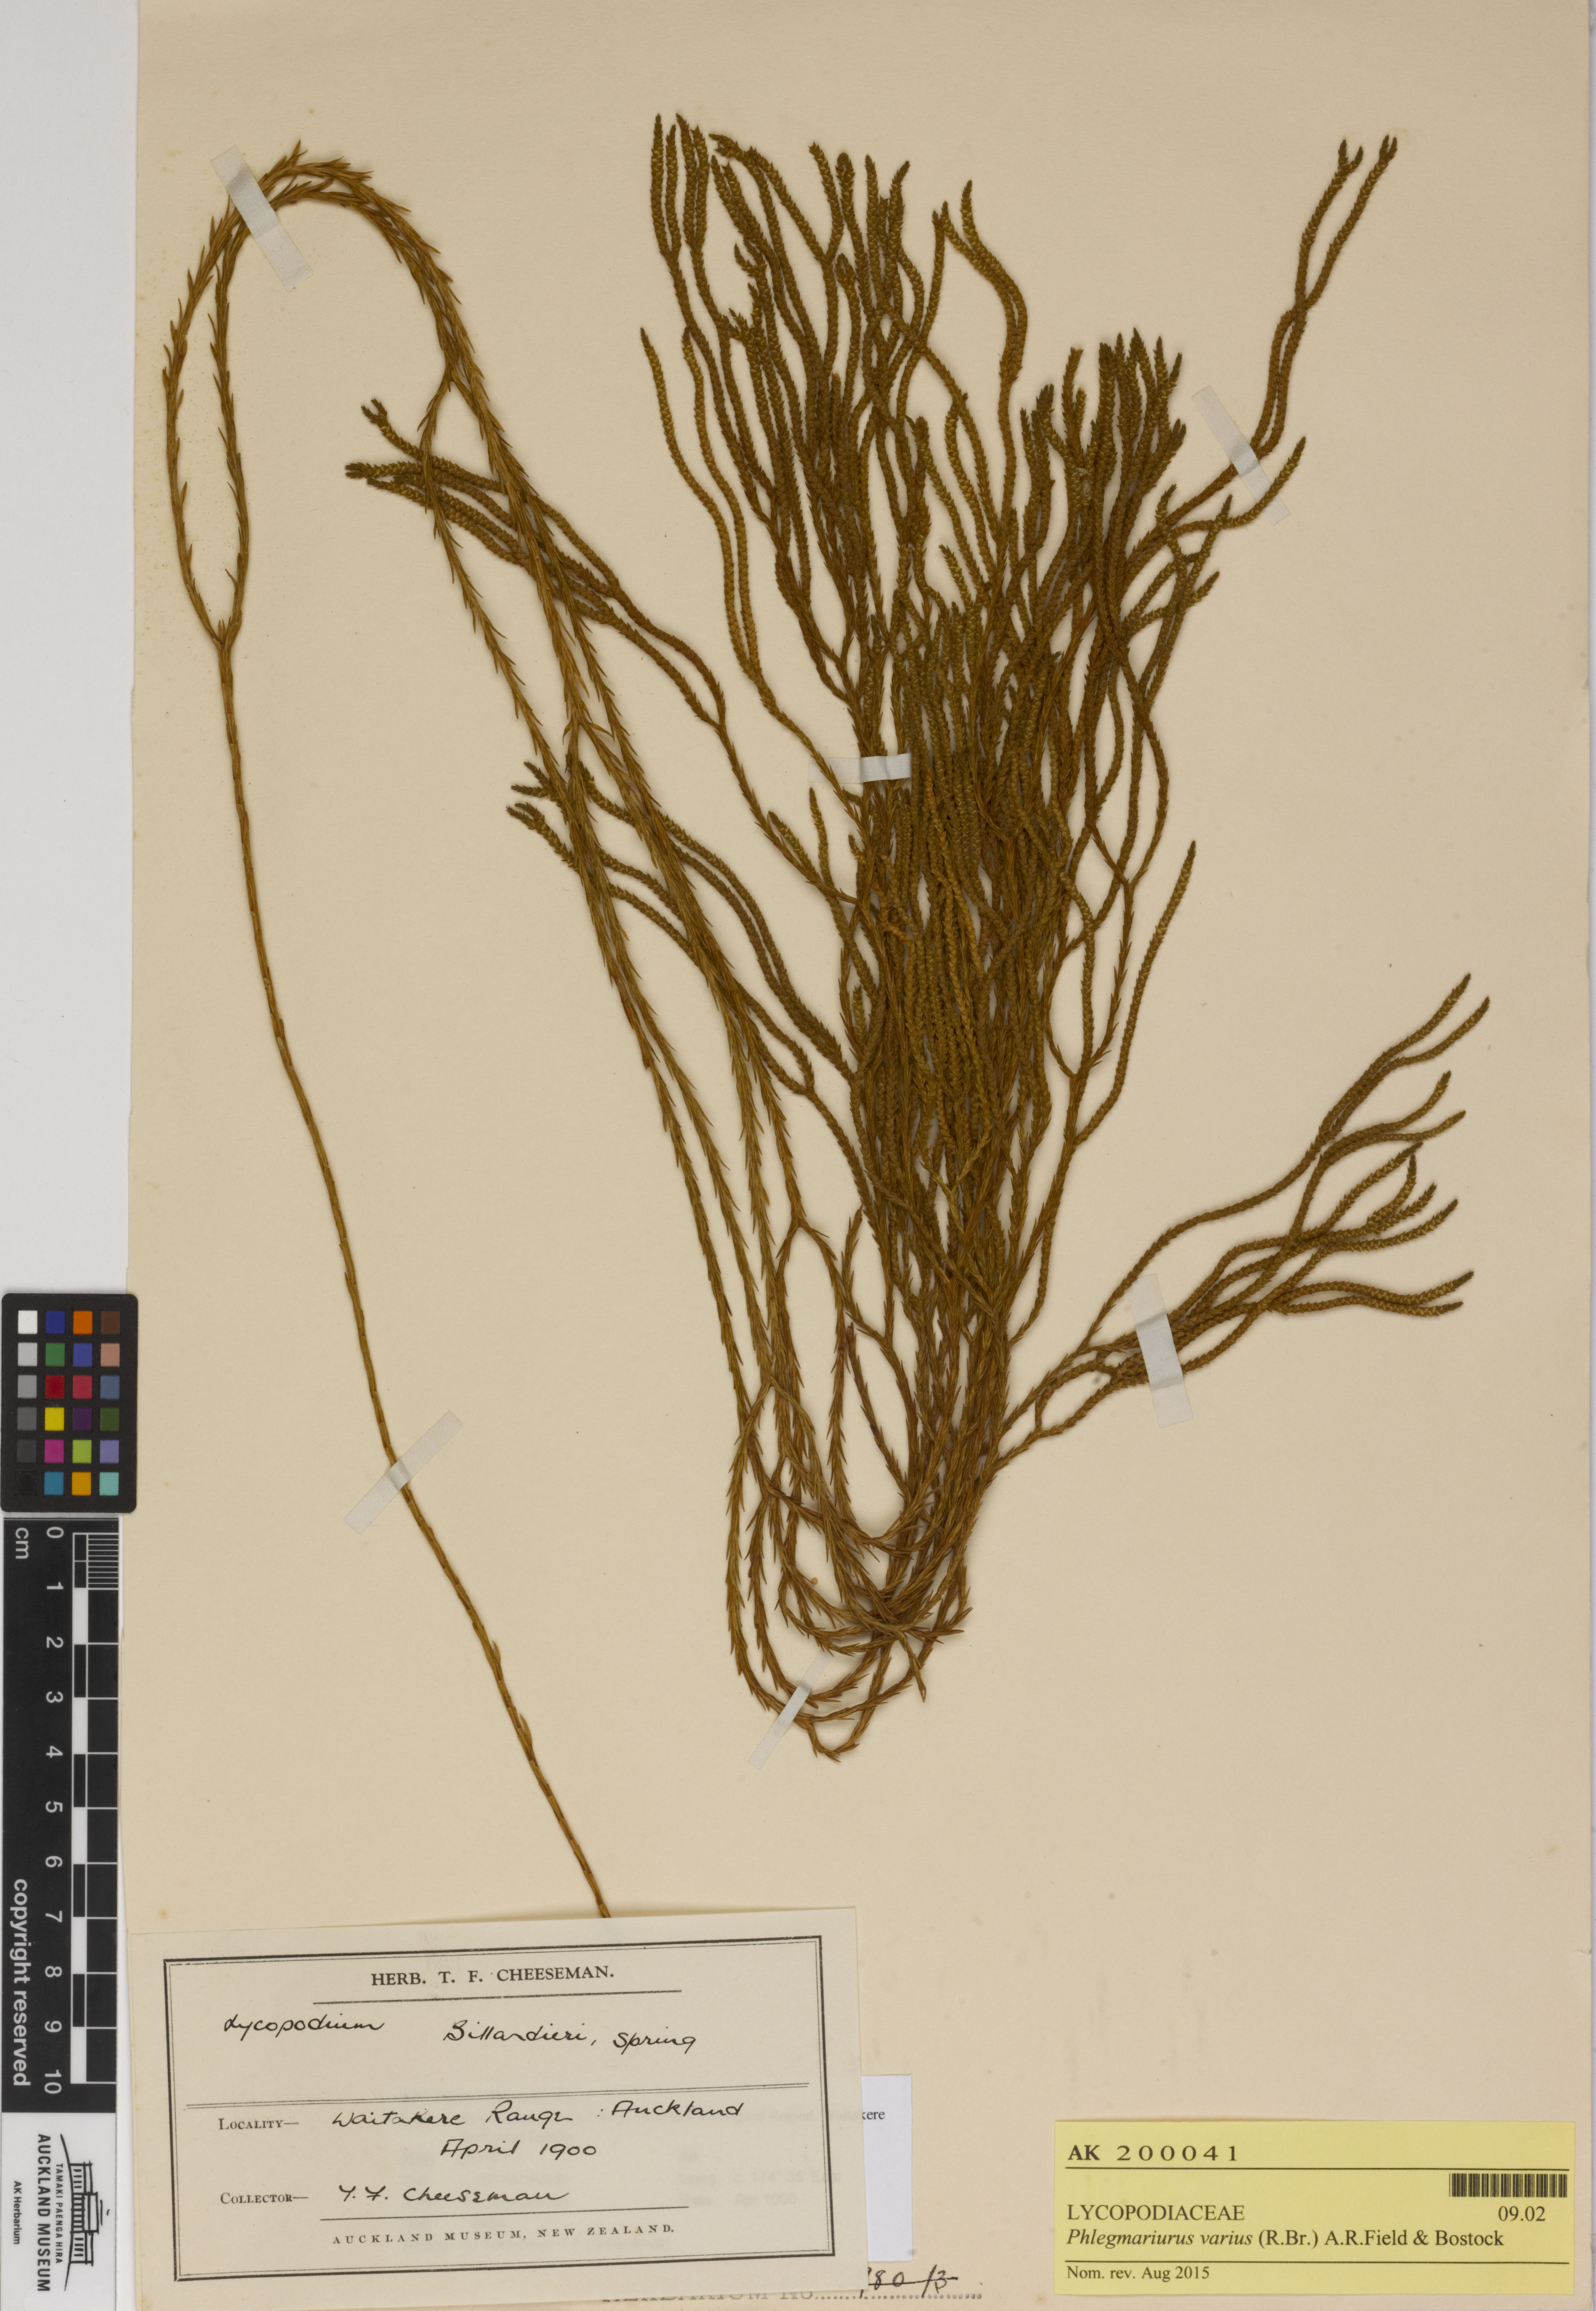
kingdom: Plantae
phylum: Tracheophyta
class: Lycopodiopsida
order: Lycopodiales
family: Lycopodiaceae
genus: Phlegmariurus
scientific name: Phlegmariurus billardierei
